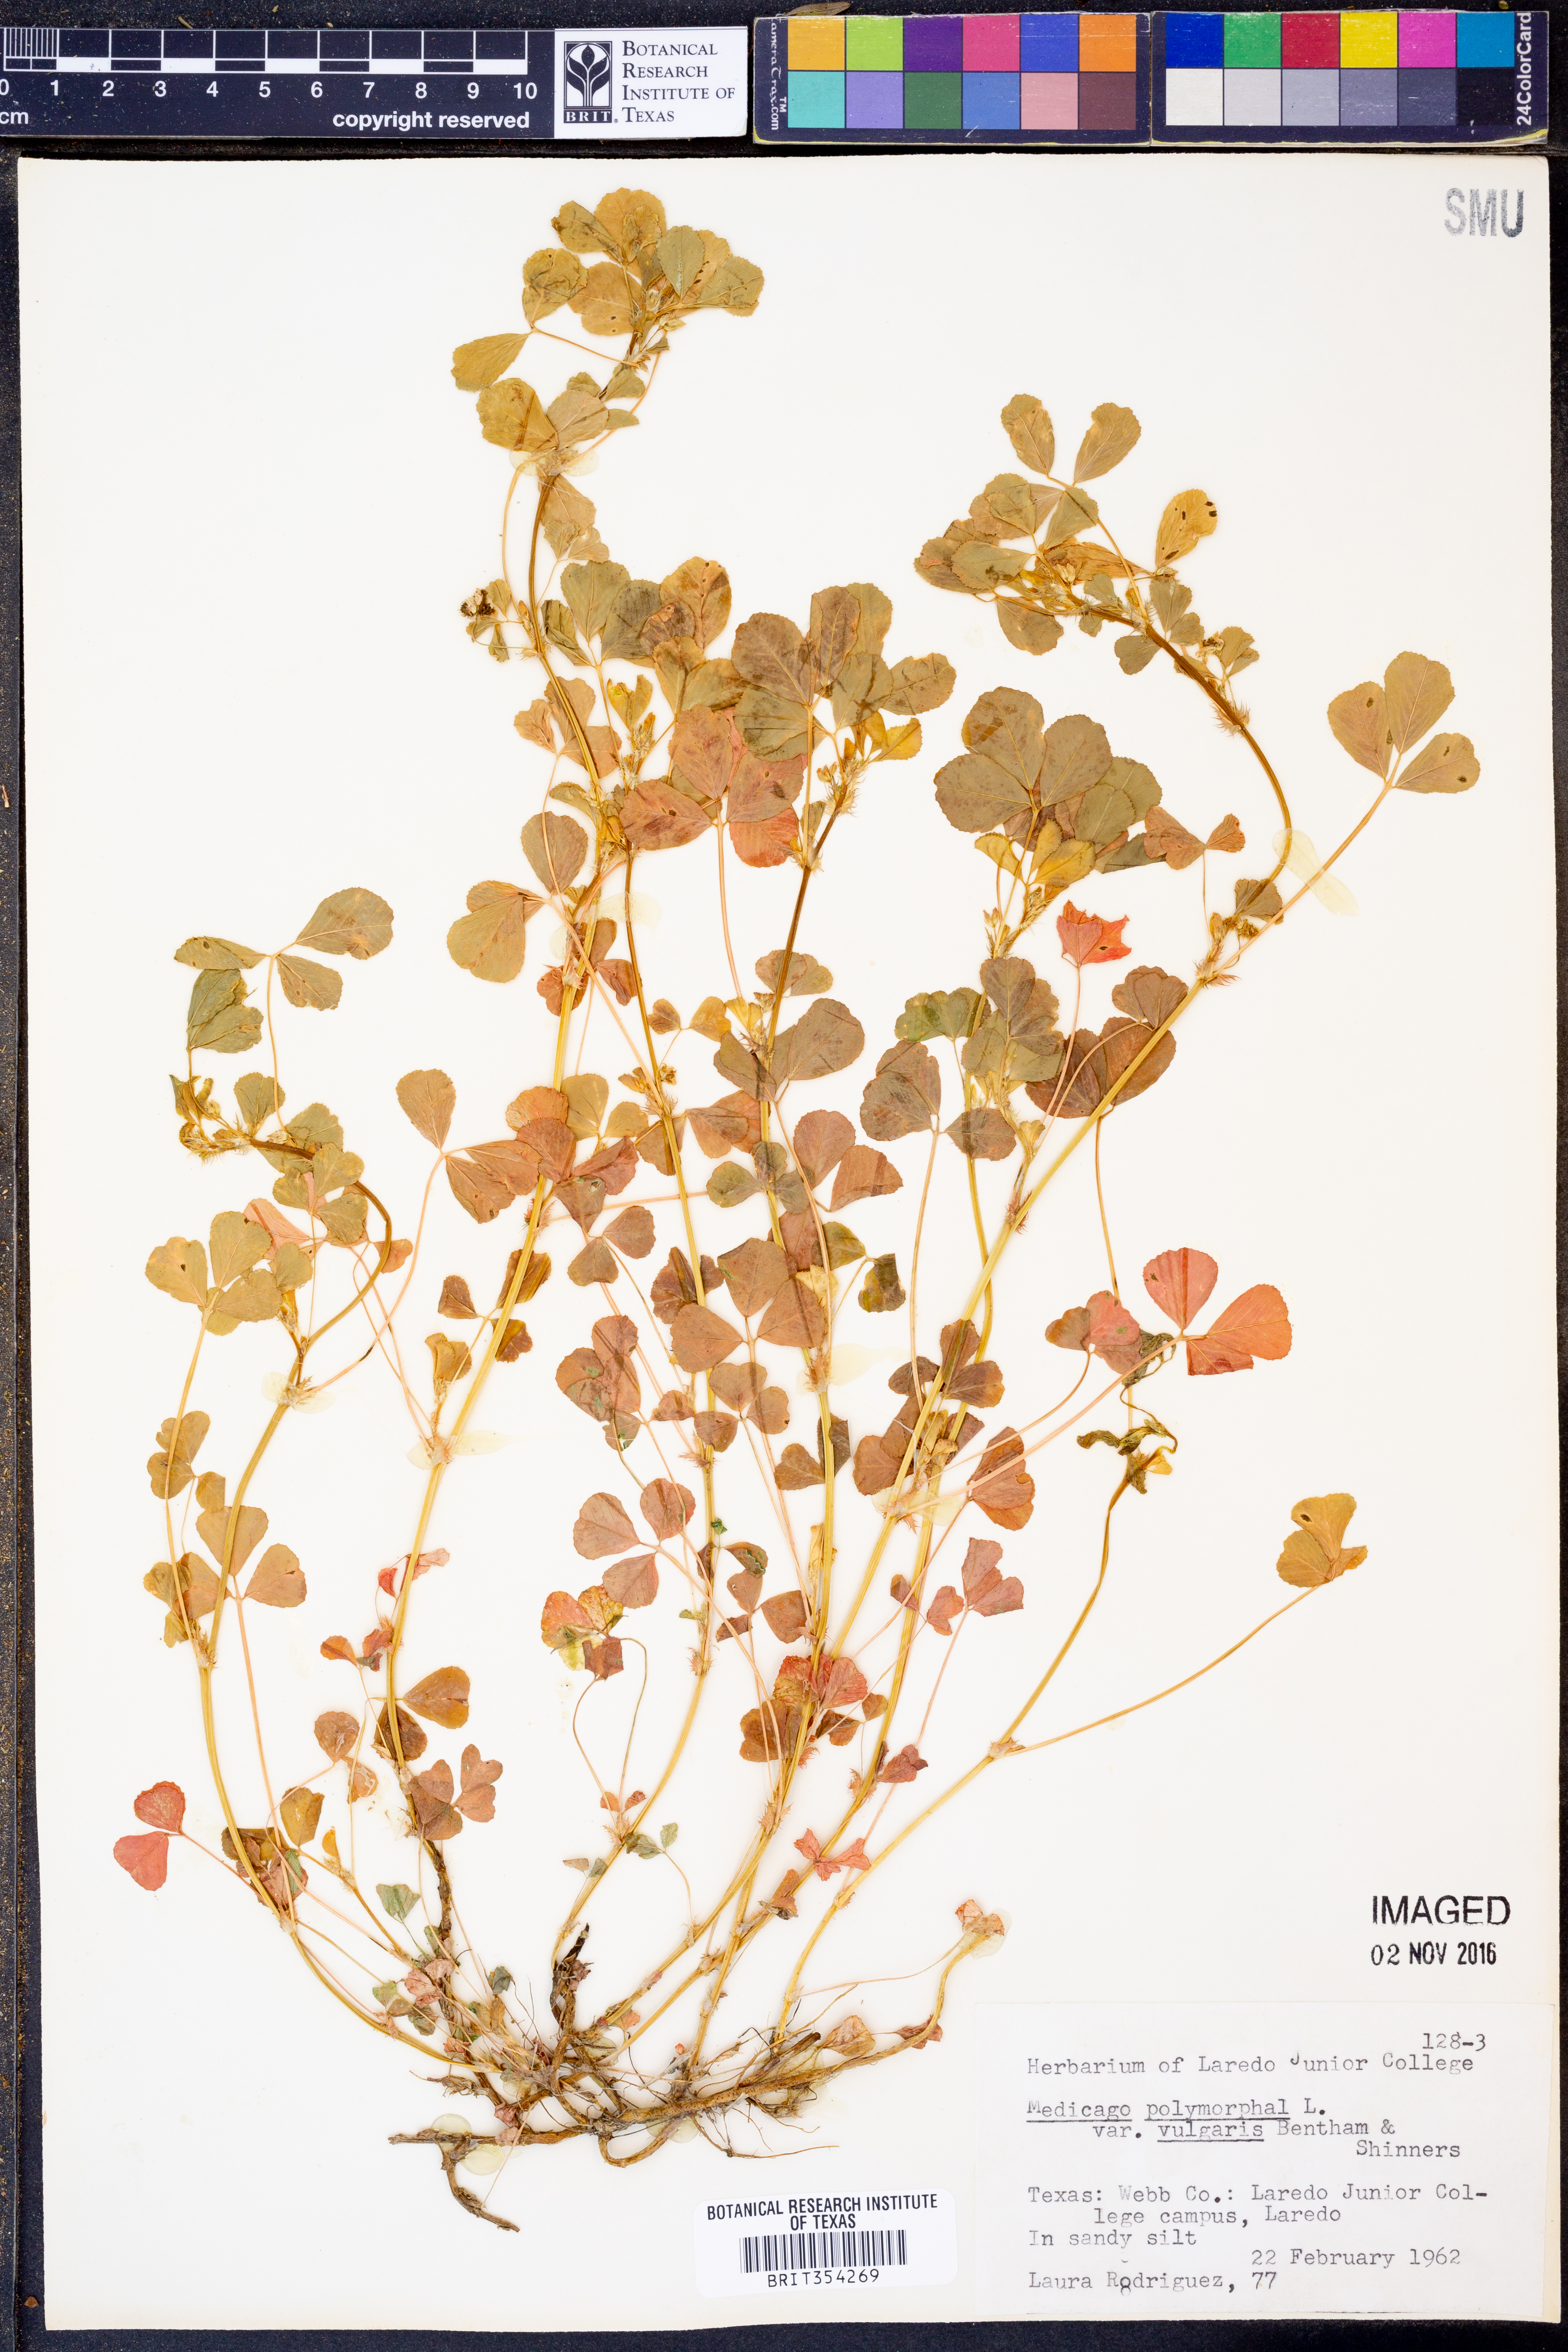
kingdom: Plantae
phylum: Tracheophyta
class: Magnoliopsida
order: Fabales
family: Fabaceae
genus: Medicago
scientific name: Medicago polymorpha
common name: Burclover
